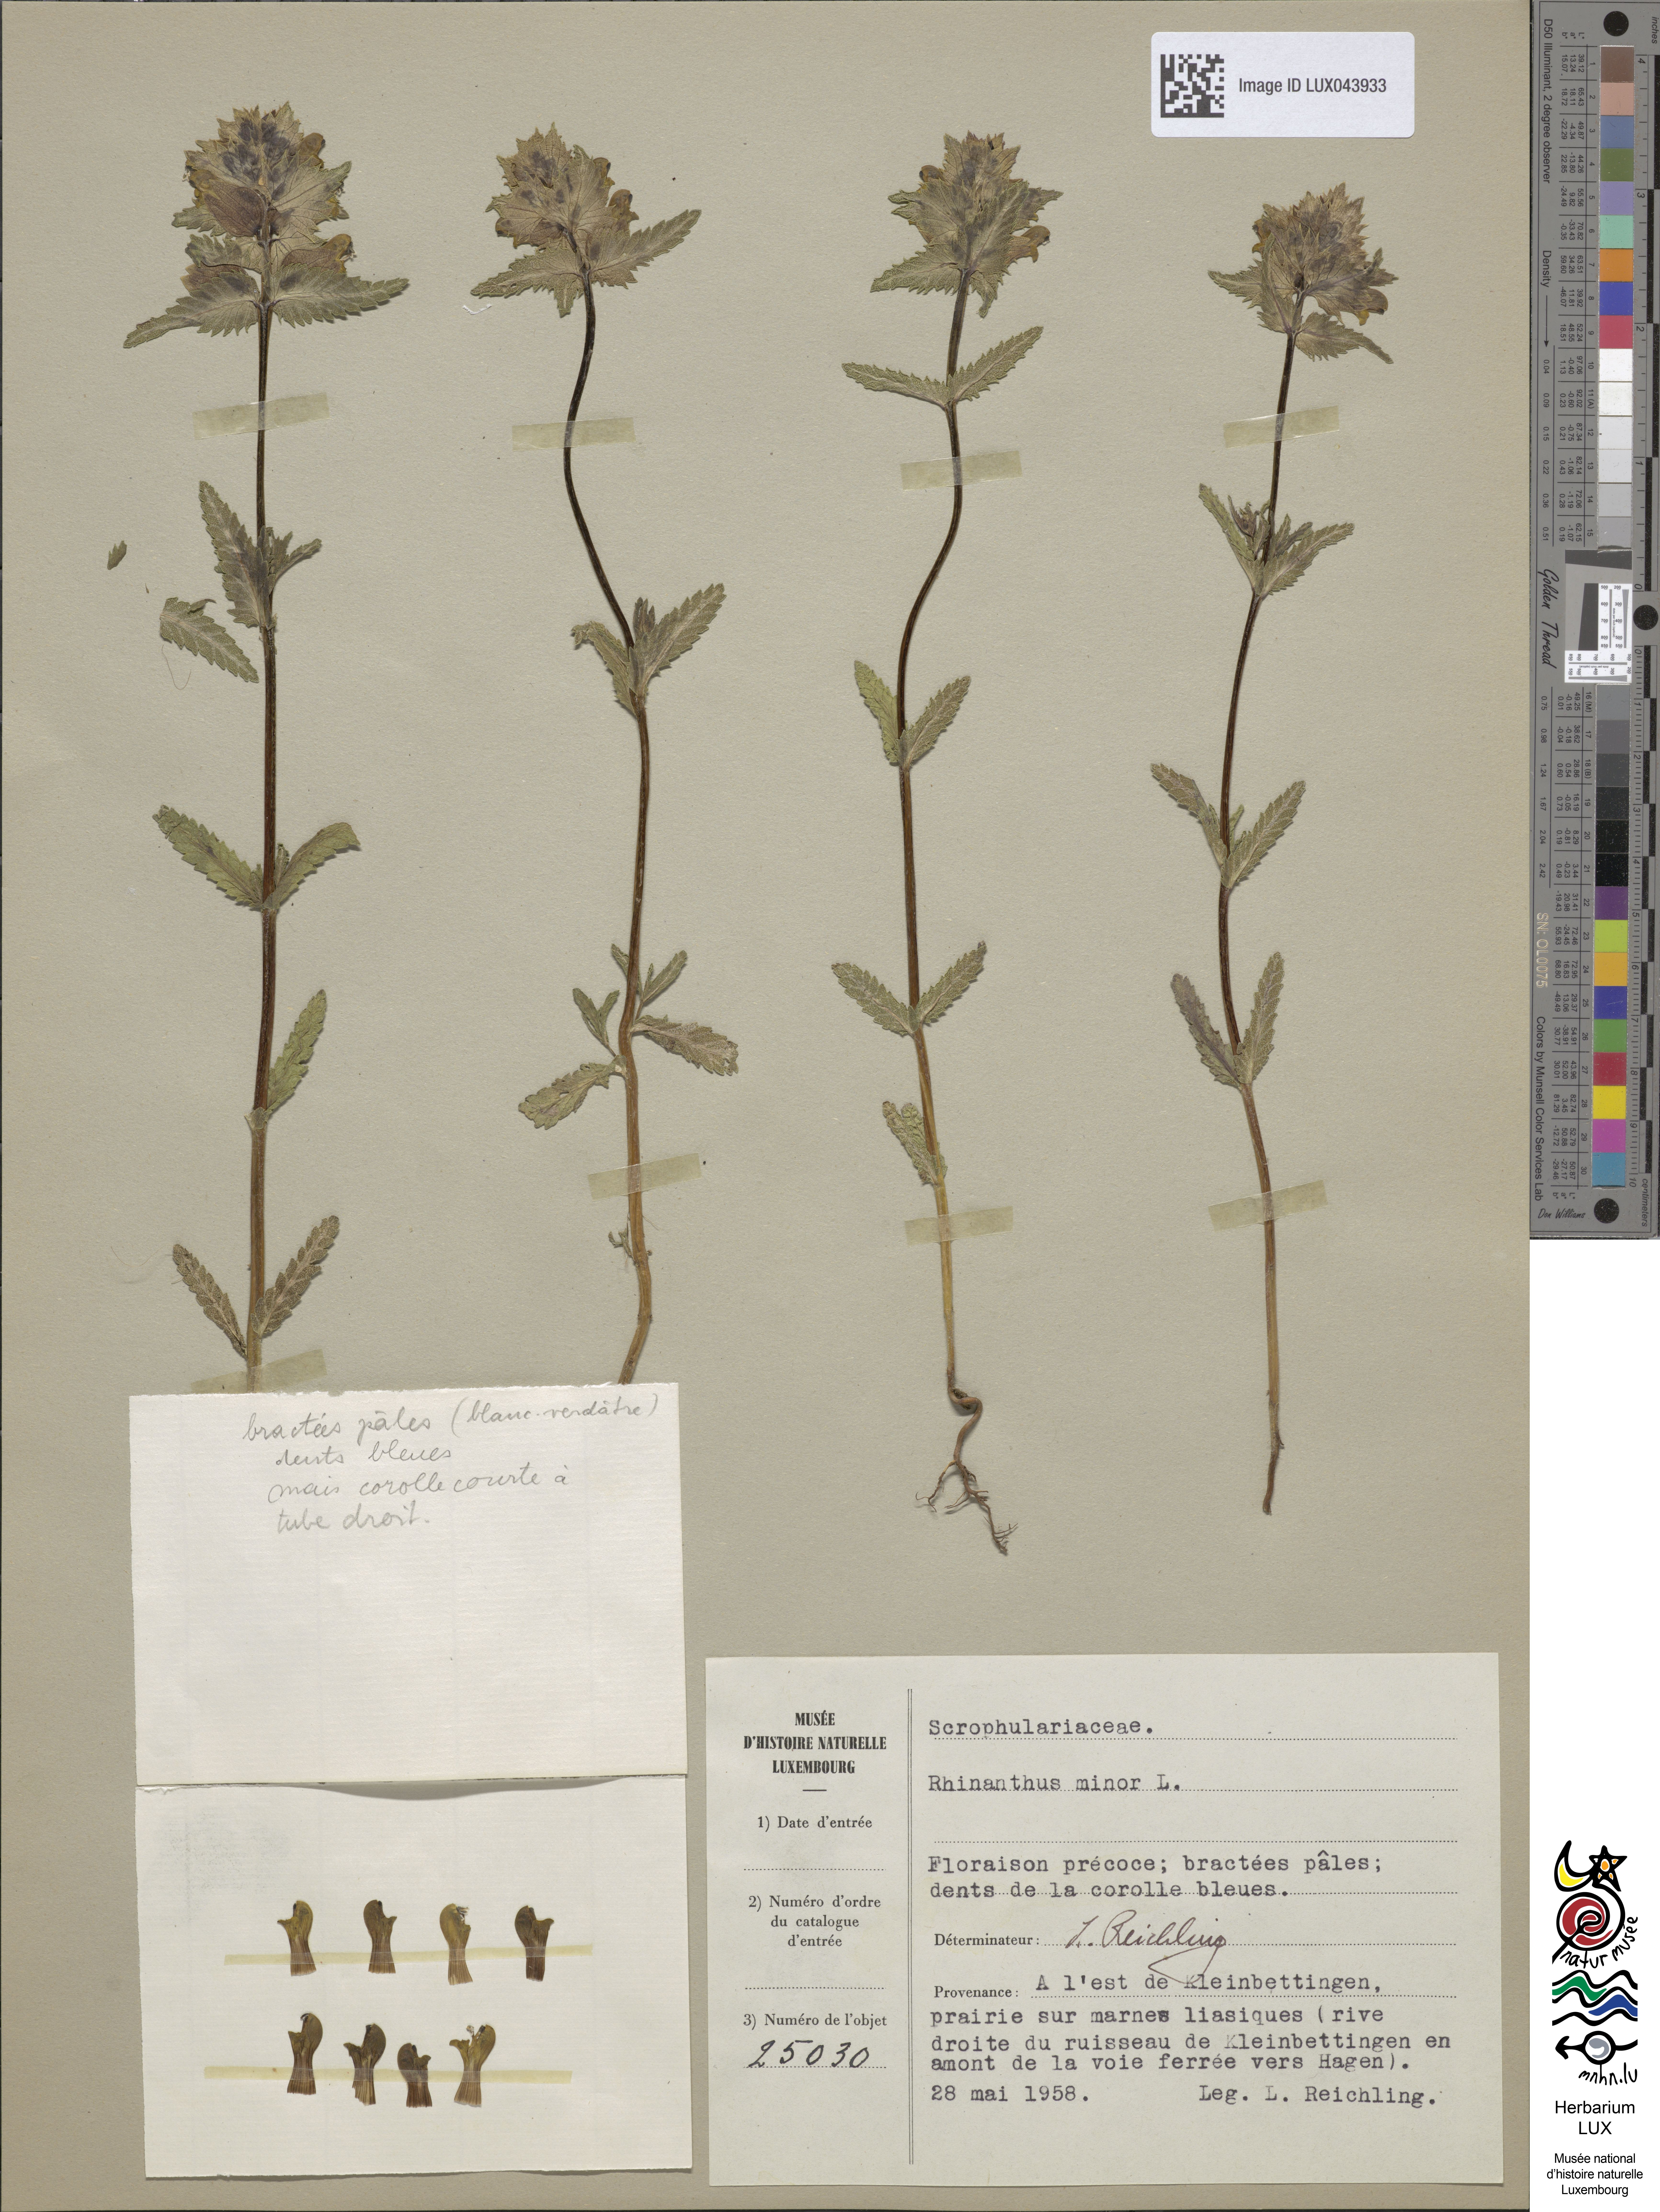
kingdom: Plantae
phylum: Tracheophyta
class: Magnoliopsida
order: Lamiales
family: Orobanchaceae
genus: Rhinanthus
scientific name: Rhinanthus minor
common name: Yellow-rattle
